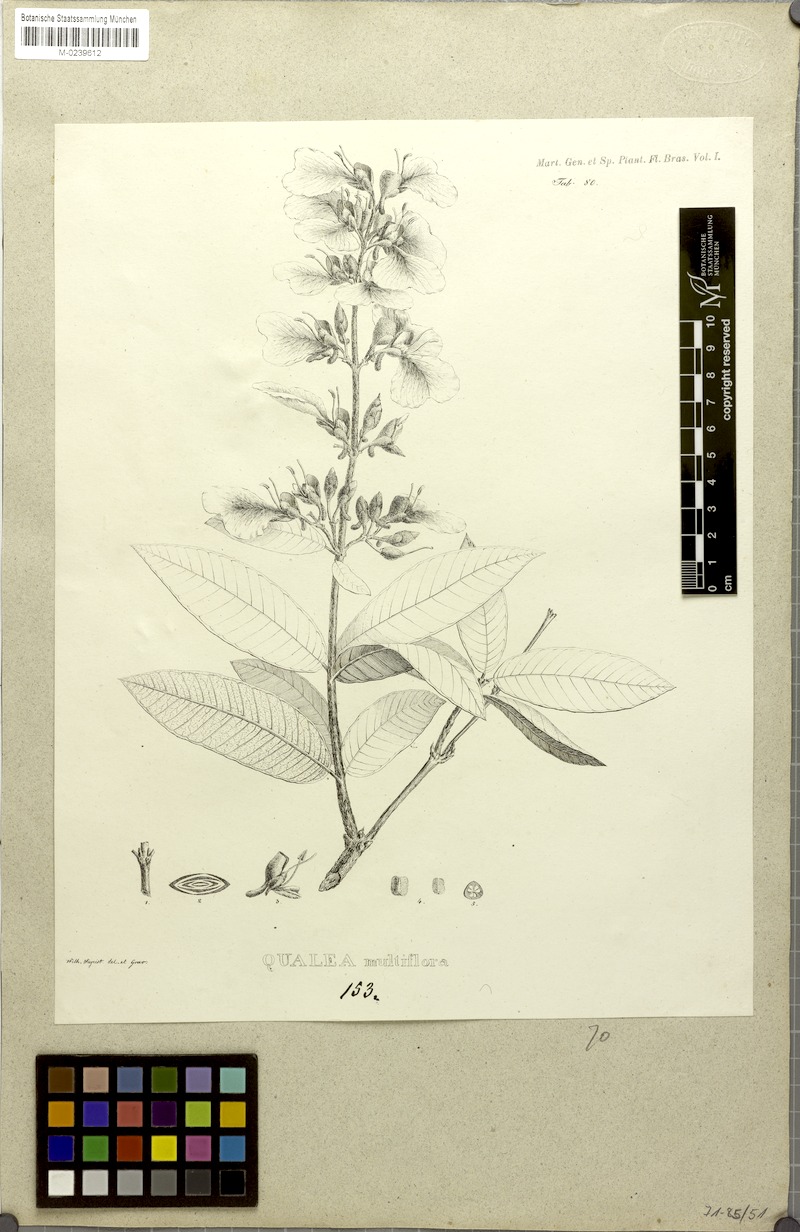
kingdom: Plantae
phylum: Tracheophyta
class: Magnoliopsida
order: Myrtales
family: Vochysiaceae
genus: Qualea
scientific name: Qualea multiflora
